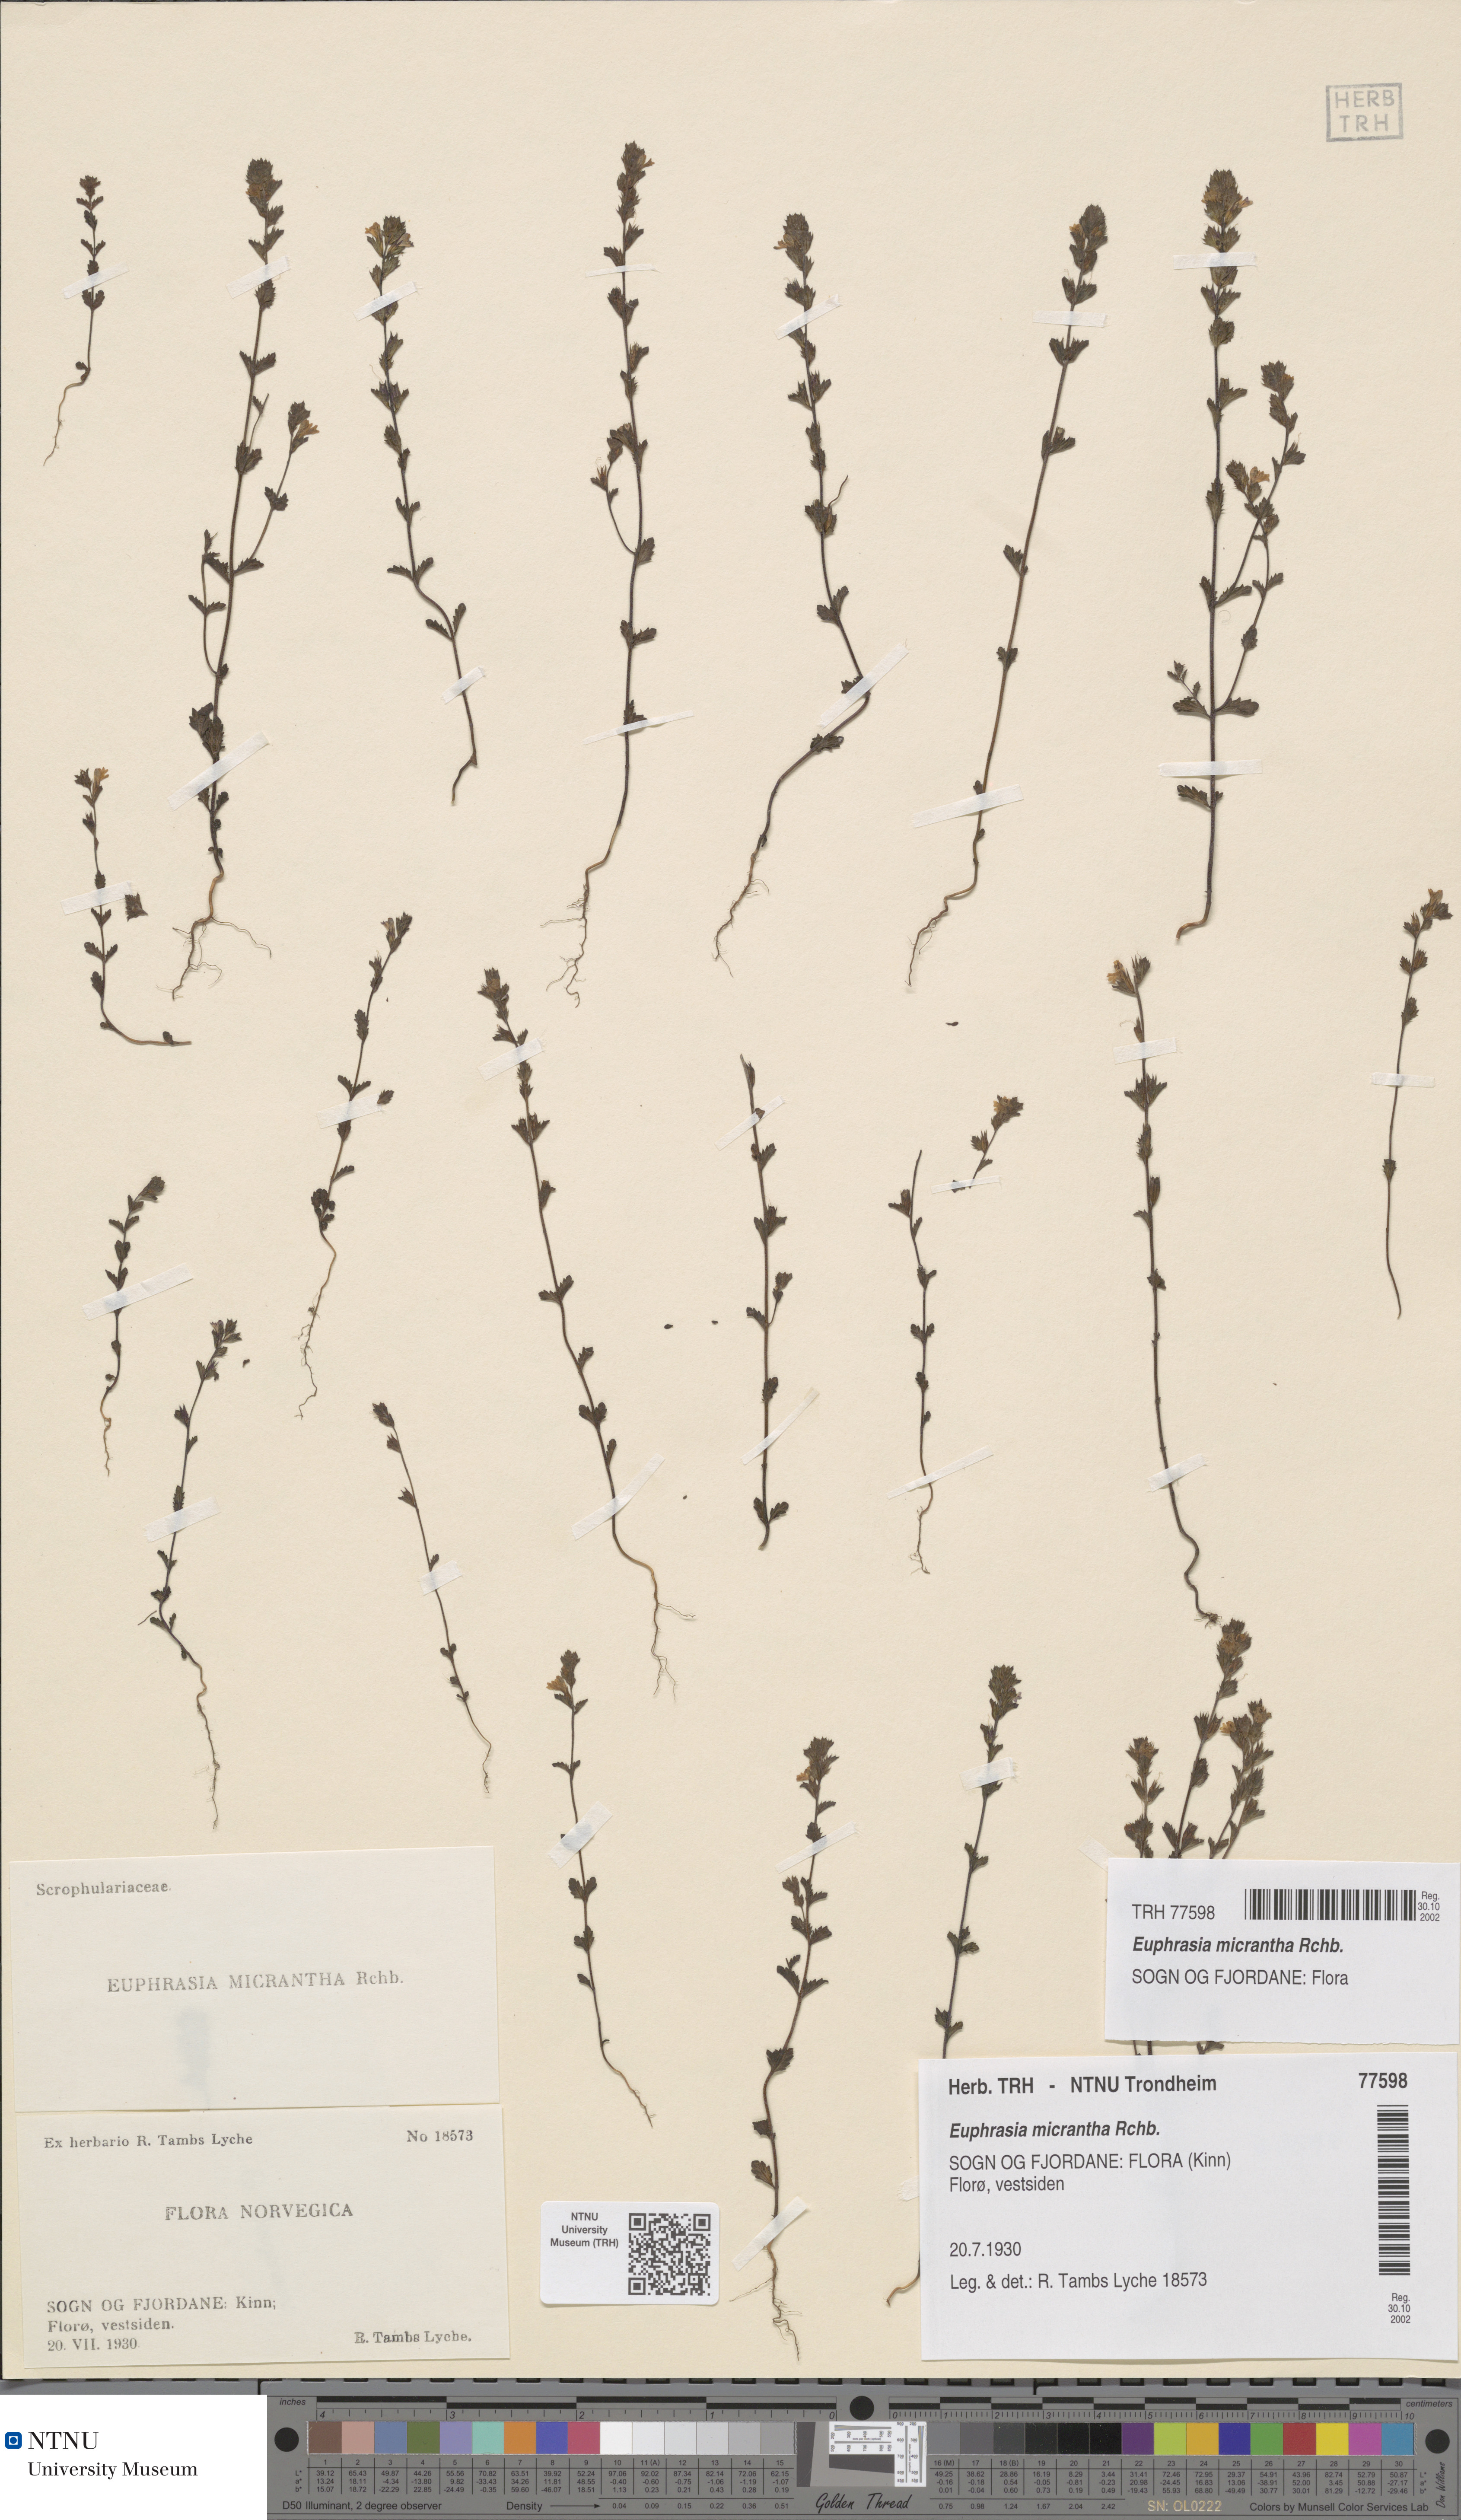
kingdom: Plantae
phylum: Tracheophyta
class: Magnoliopsida
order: Lamiales
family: Orobanchaceae
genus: Euphrasia
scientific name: Euphrasia micrantha
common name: Northern eyebright
